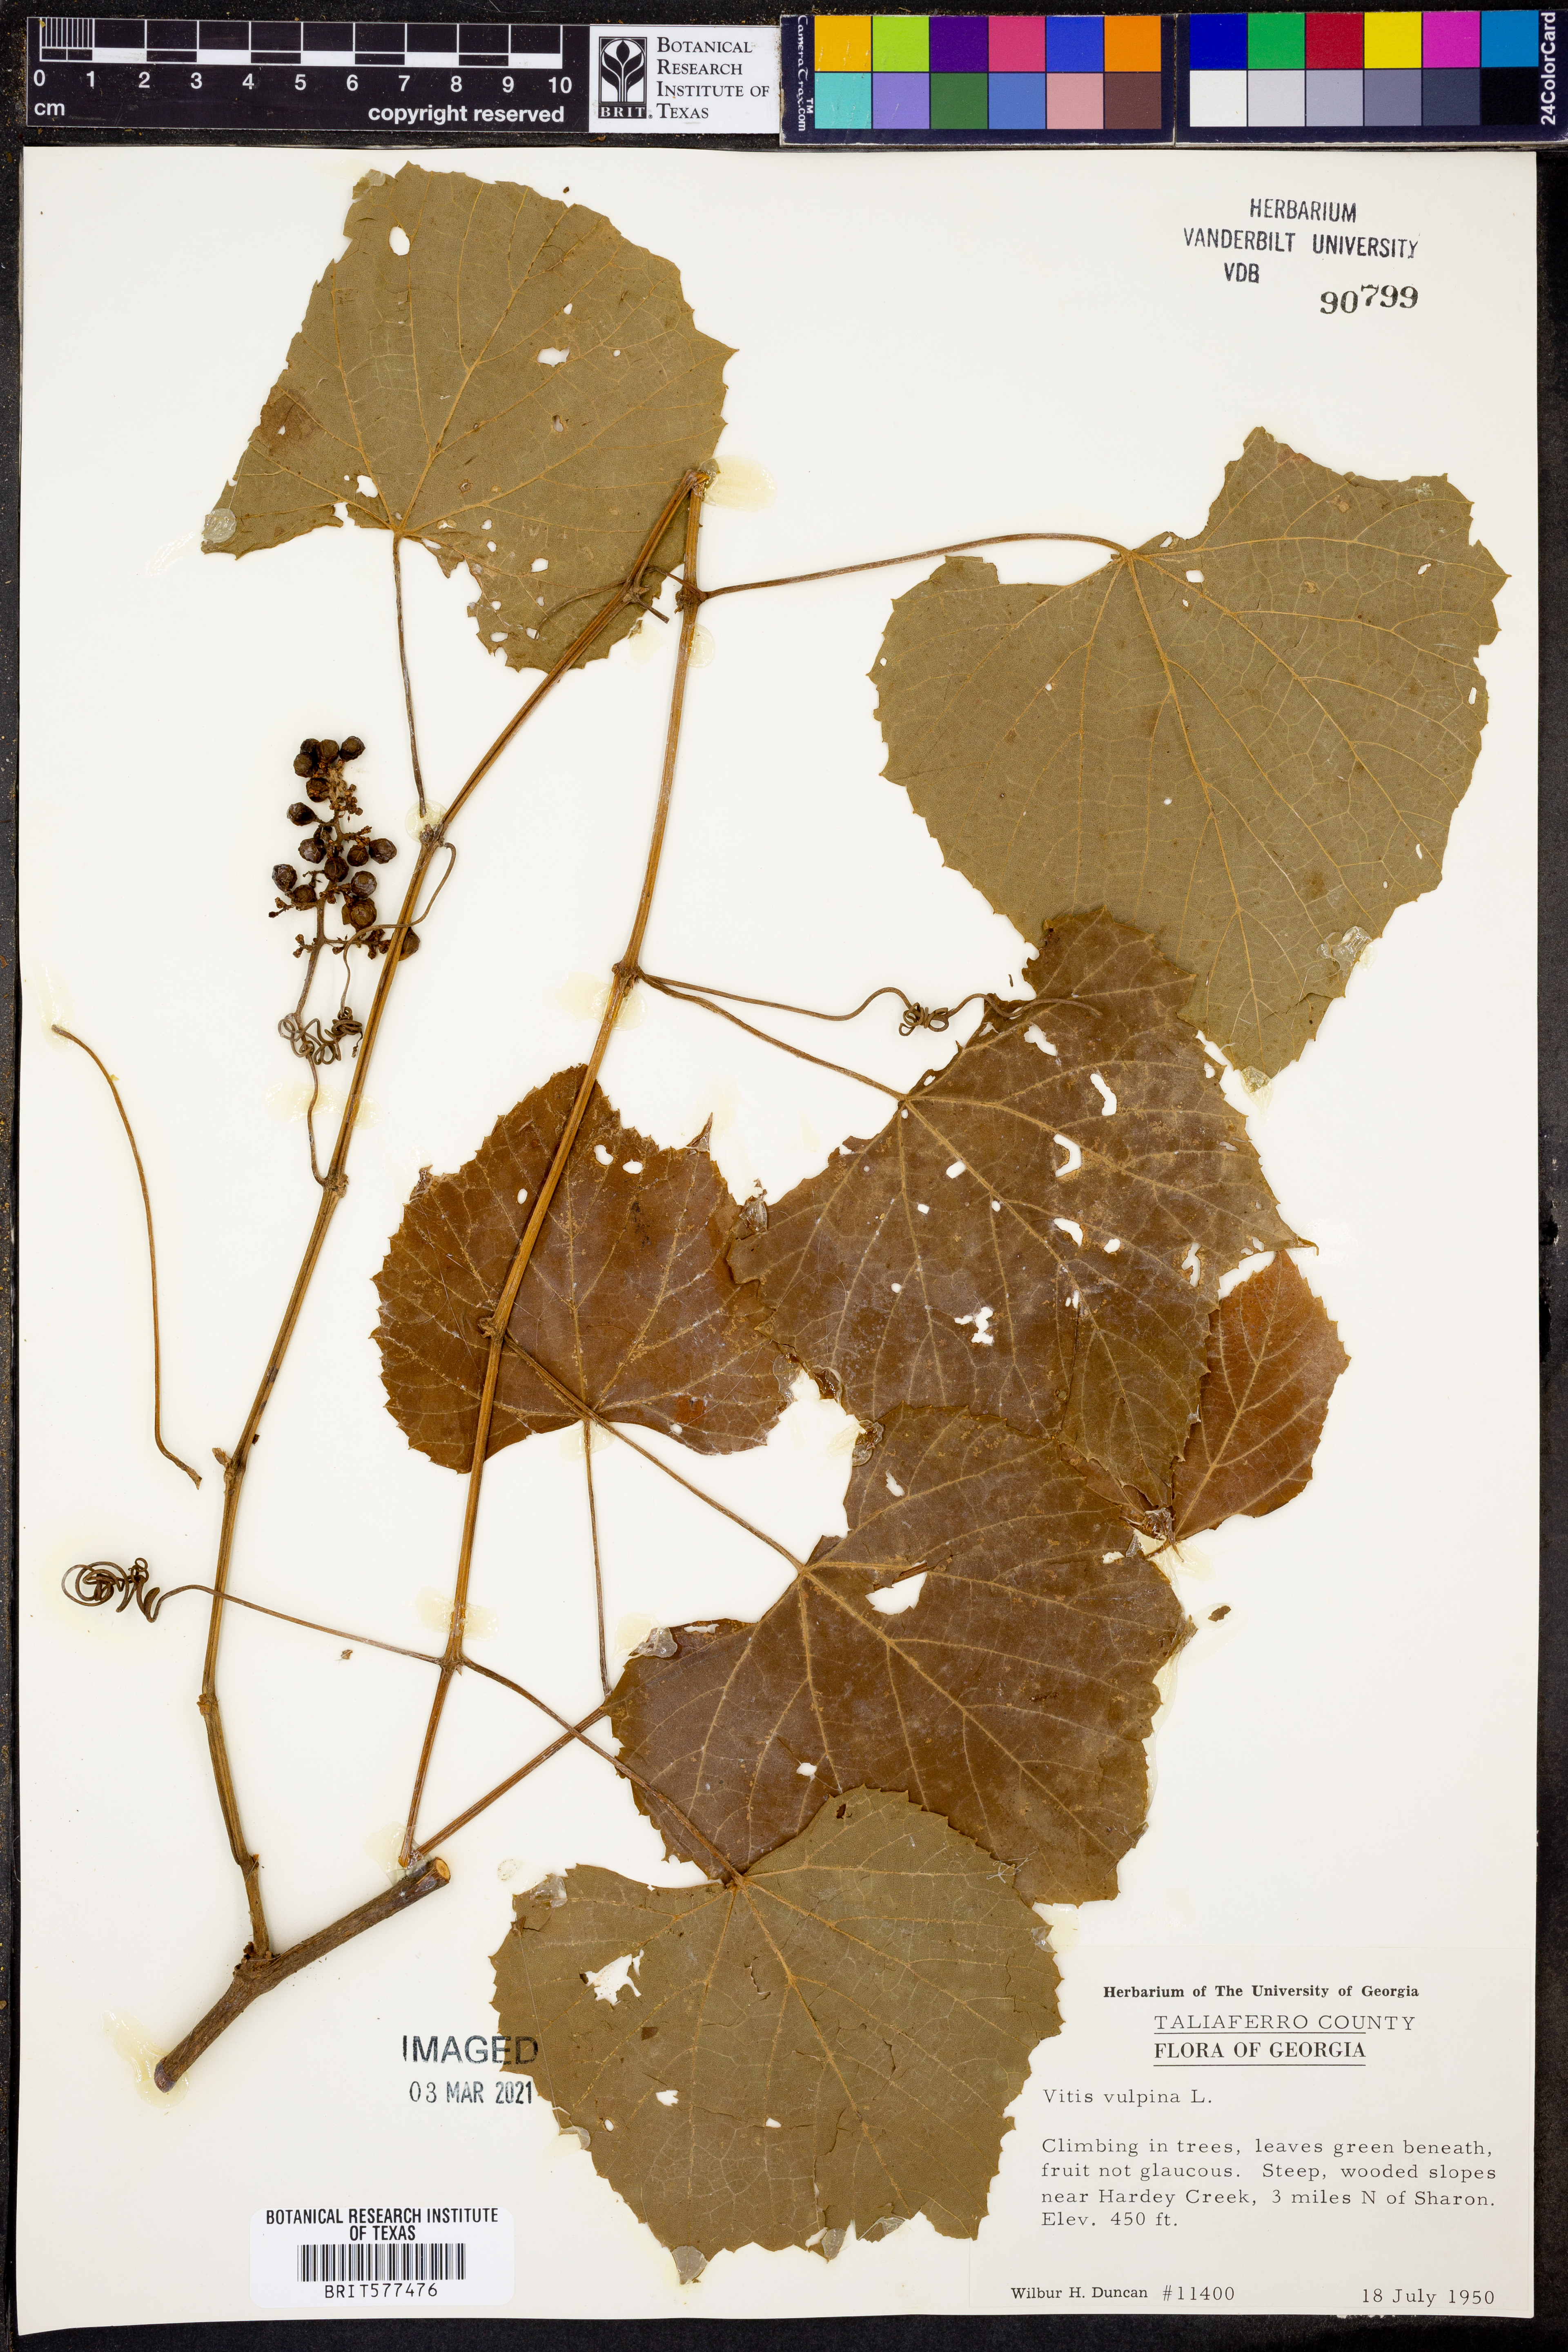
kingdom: Plantae
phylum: Tracheophyta
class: Magnoliopsida
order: Vitales
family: Vitaceae
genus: Vitis
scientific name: Vitis vulpina
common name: Frost grape
